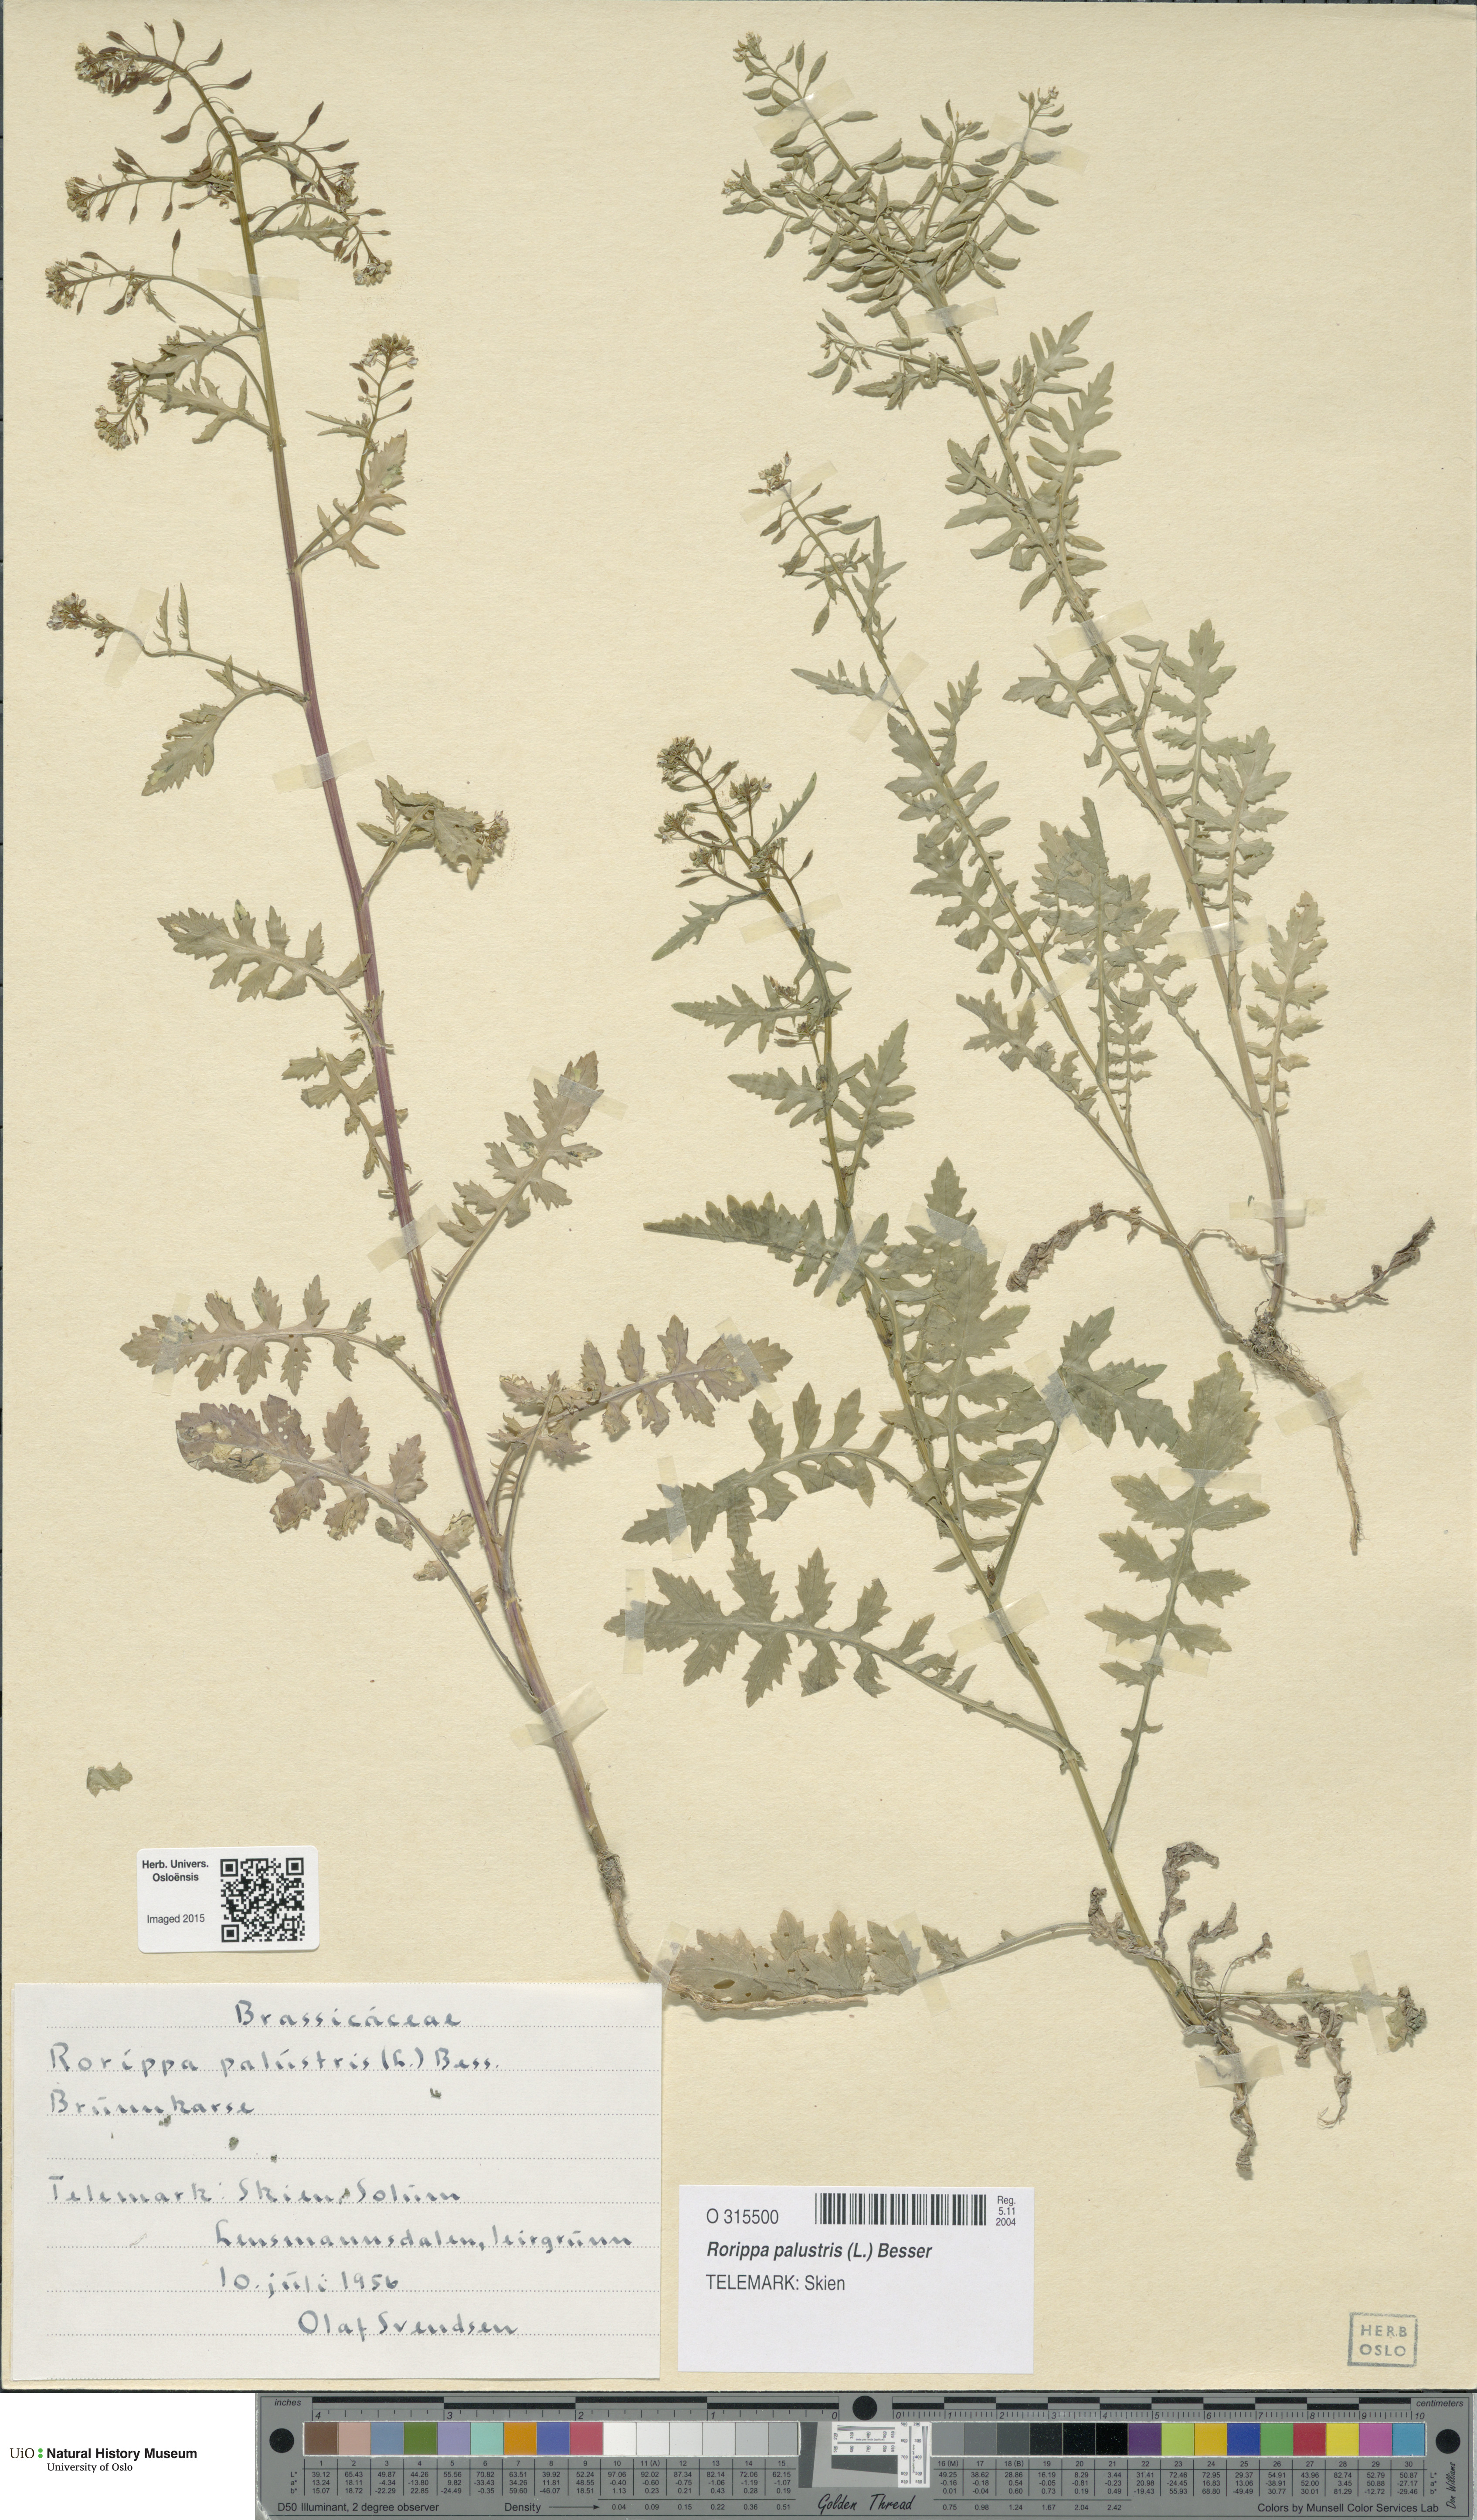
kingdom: Plantae
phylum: Tracheophyta
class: Magnoliopsida
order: Brassicales
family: Brassicaceae
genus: Rorippa
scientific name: Rorippa palustris
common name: Marsh yellow-cress
